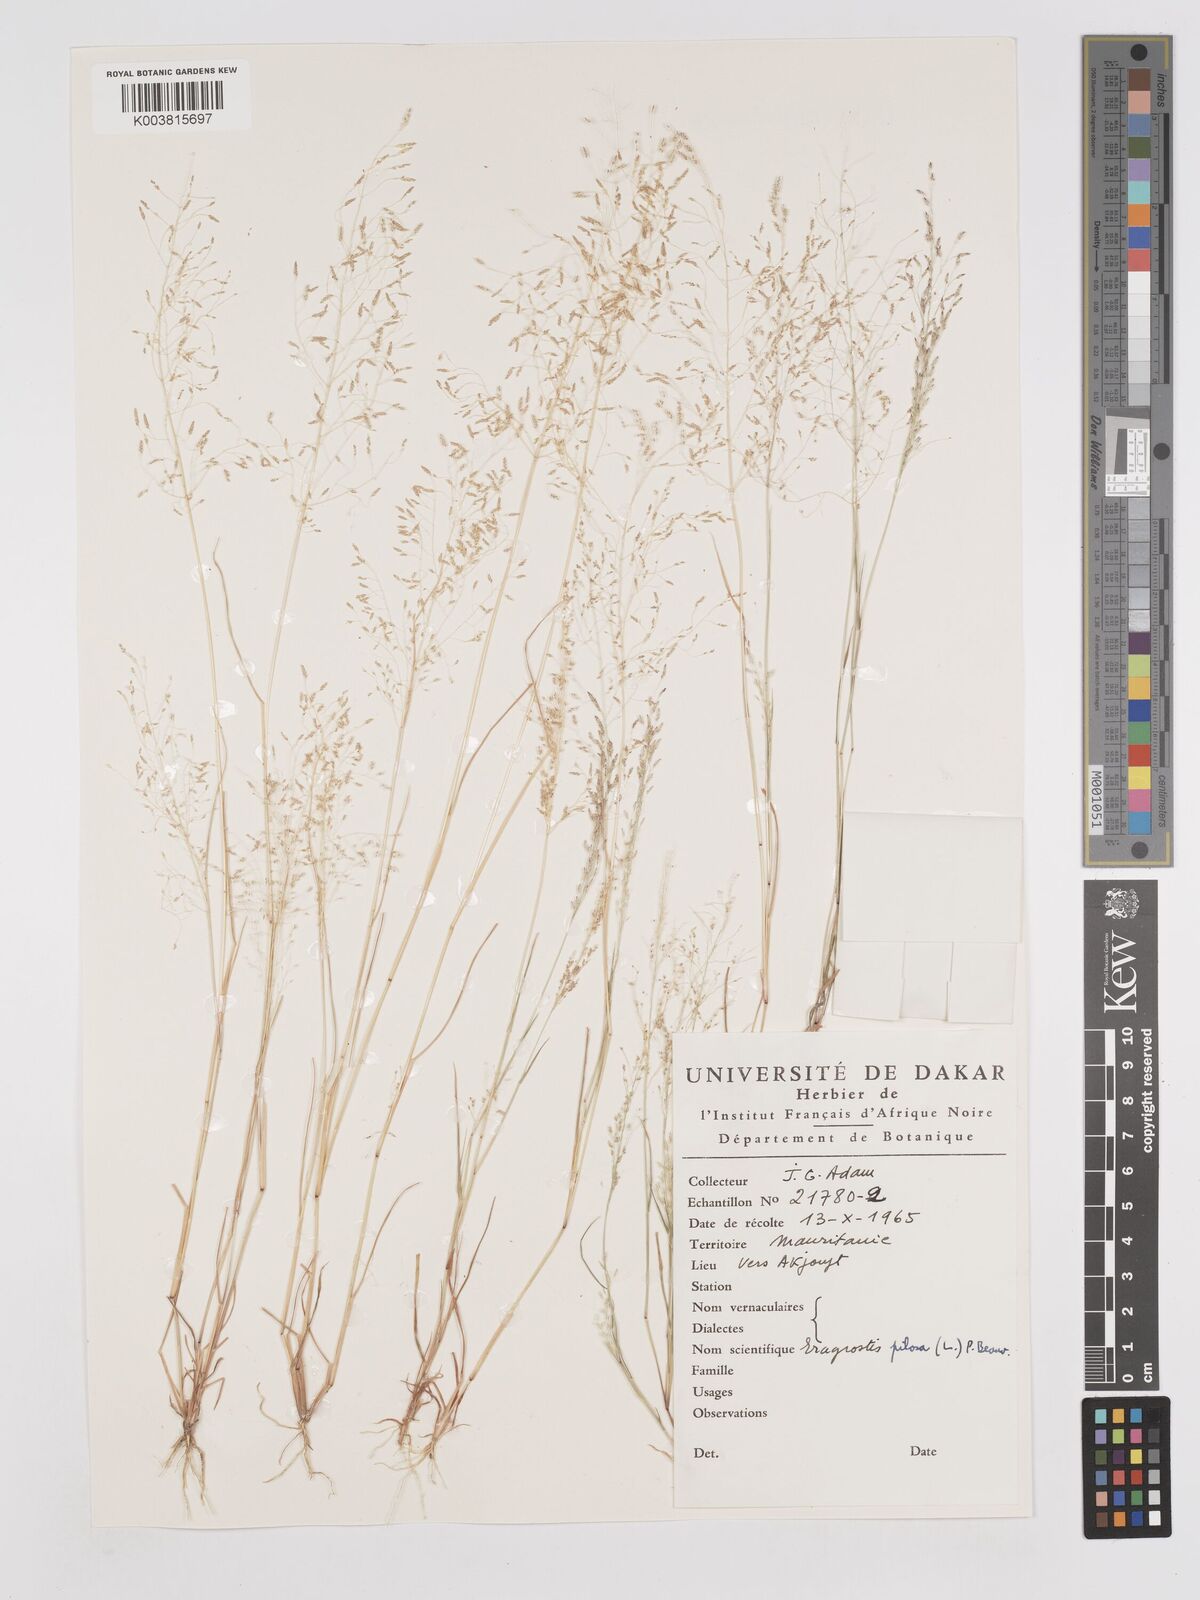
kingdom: Plantae
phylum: Tracheophyta
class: Liliopsida
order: Poales
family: Poaceae
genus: Eragrostis
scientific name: Eragrostis pilosa
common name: Indian lovegrass
